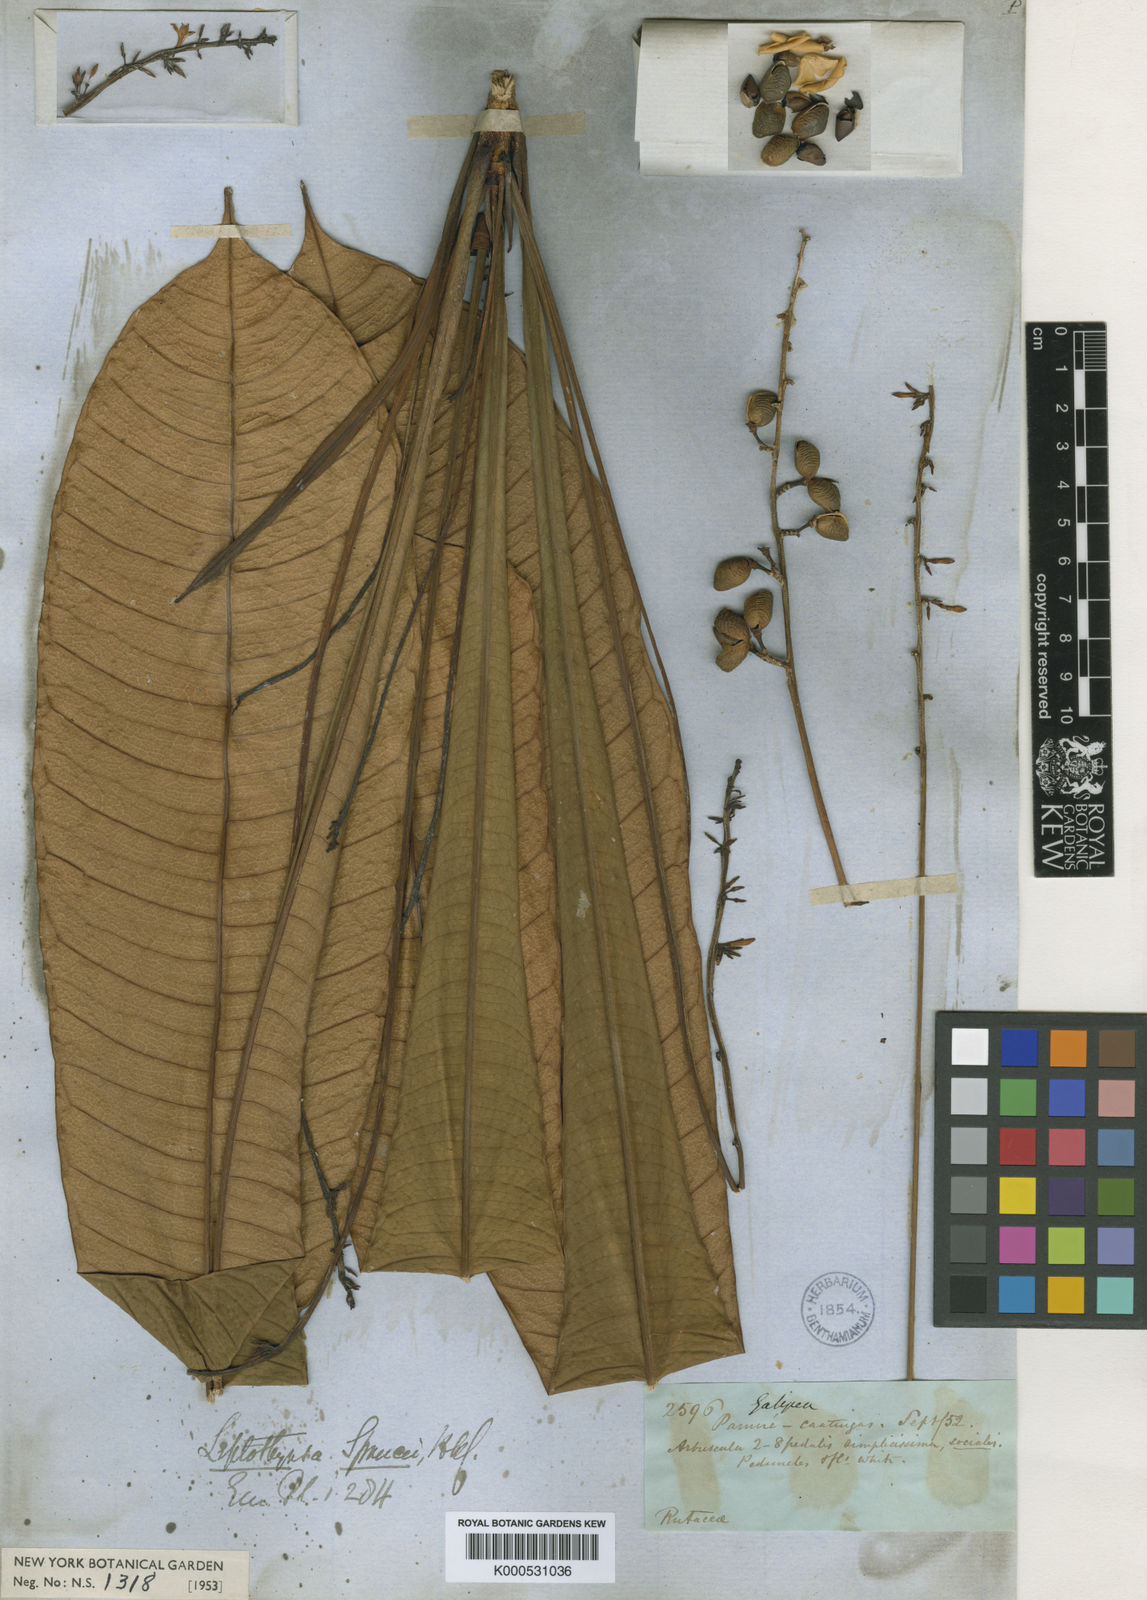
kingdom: Plantae
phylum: Tracheophyta
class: Magnoliopsida
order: Sapindales
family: Rutaceae
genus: Leptothyrsa
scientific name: Leptothyrsa sprucei
